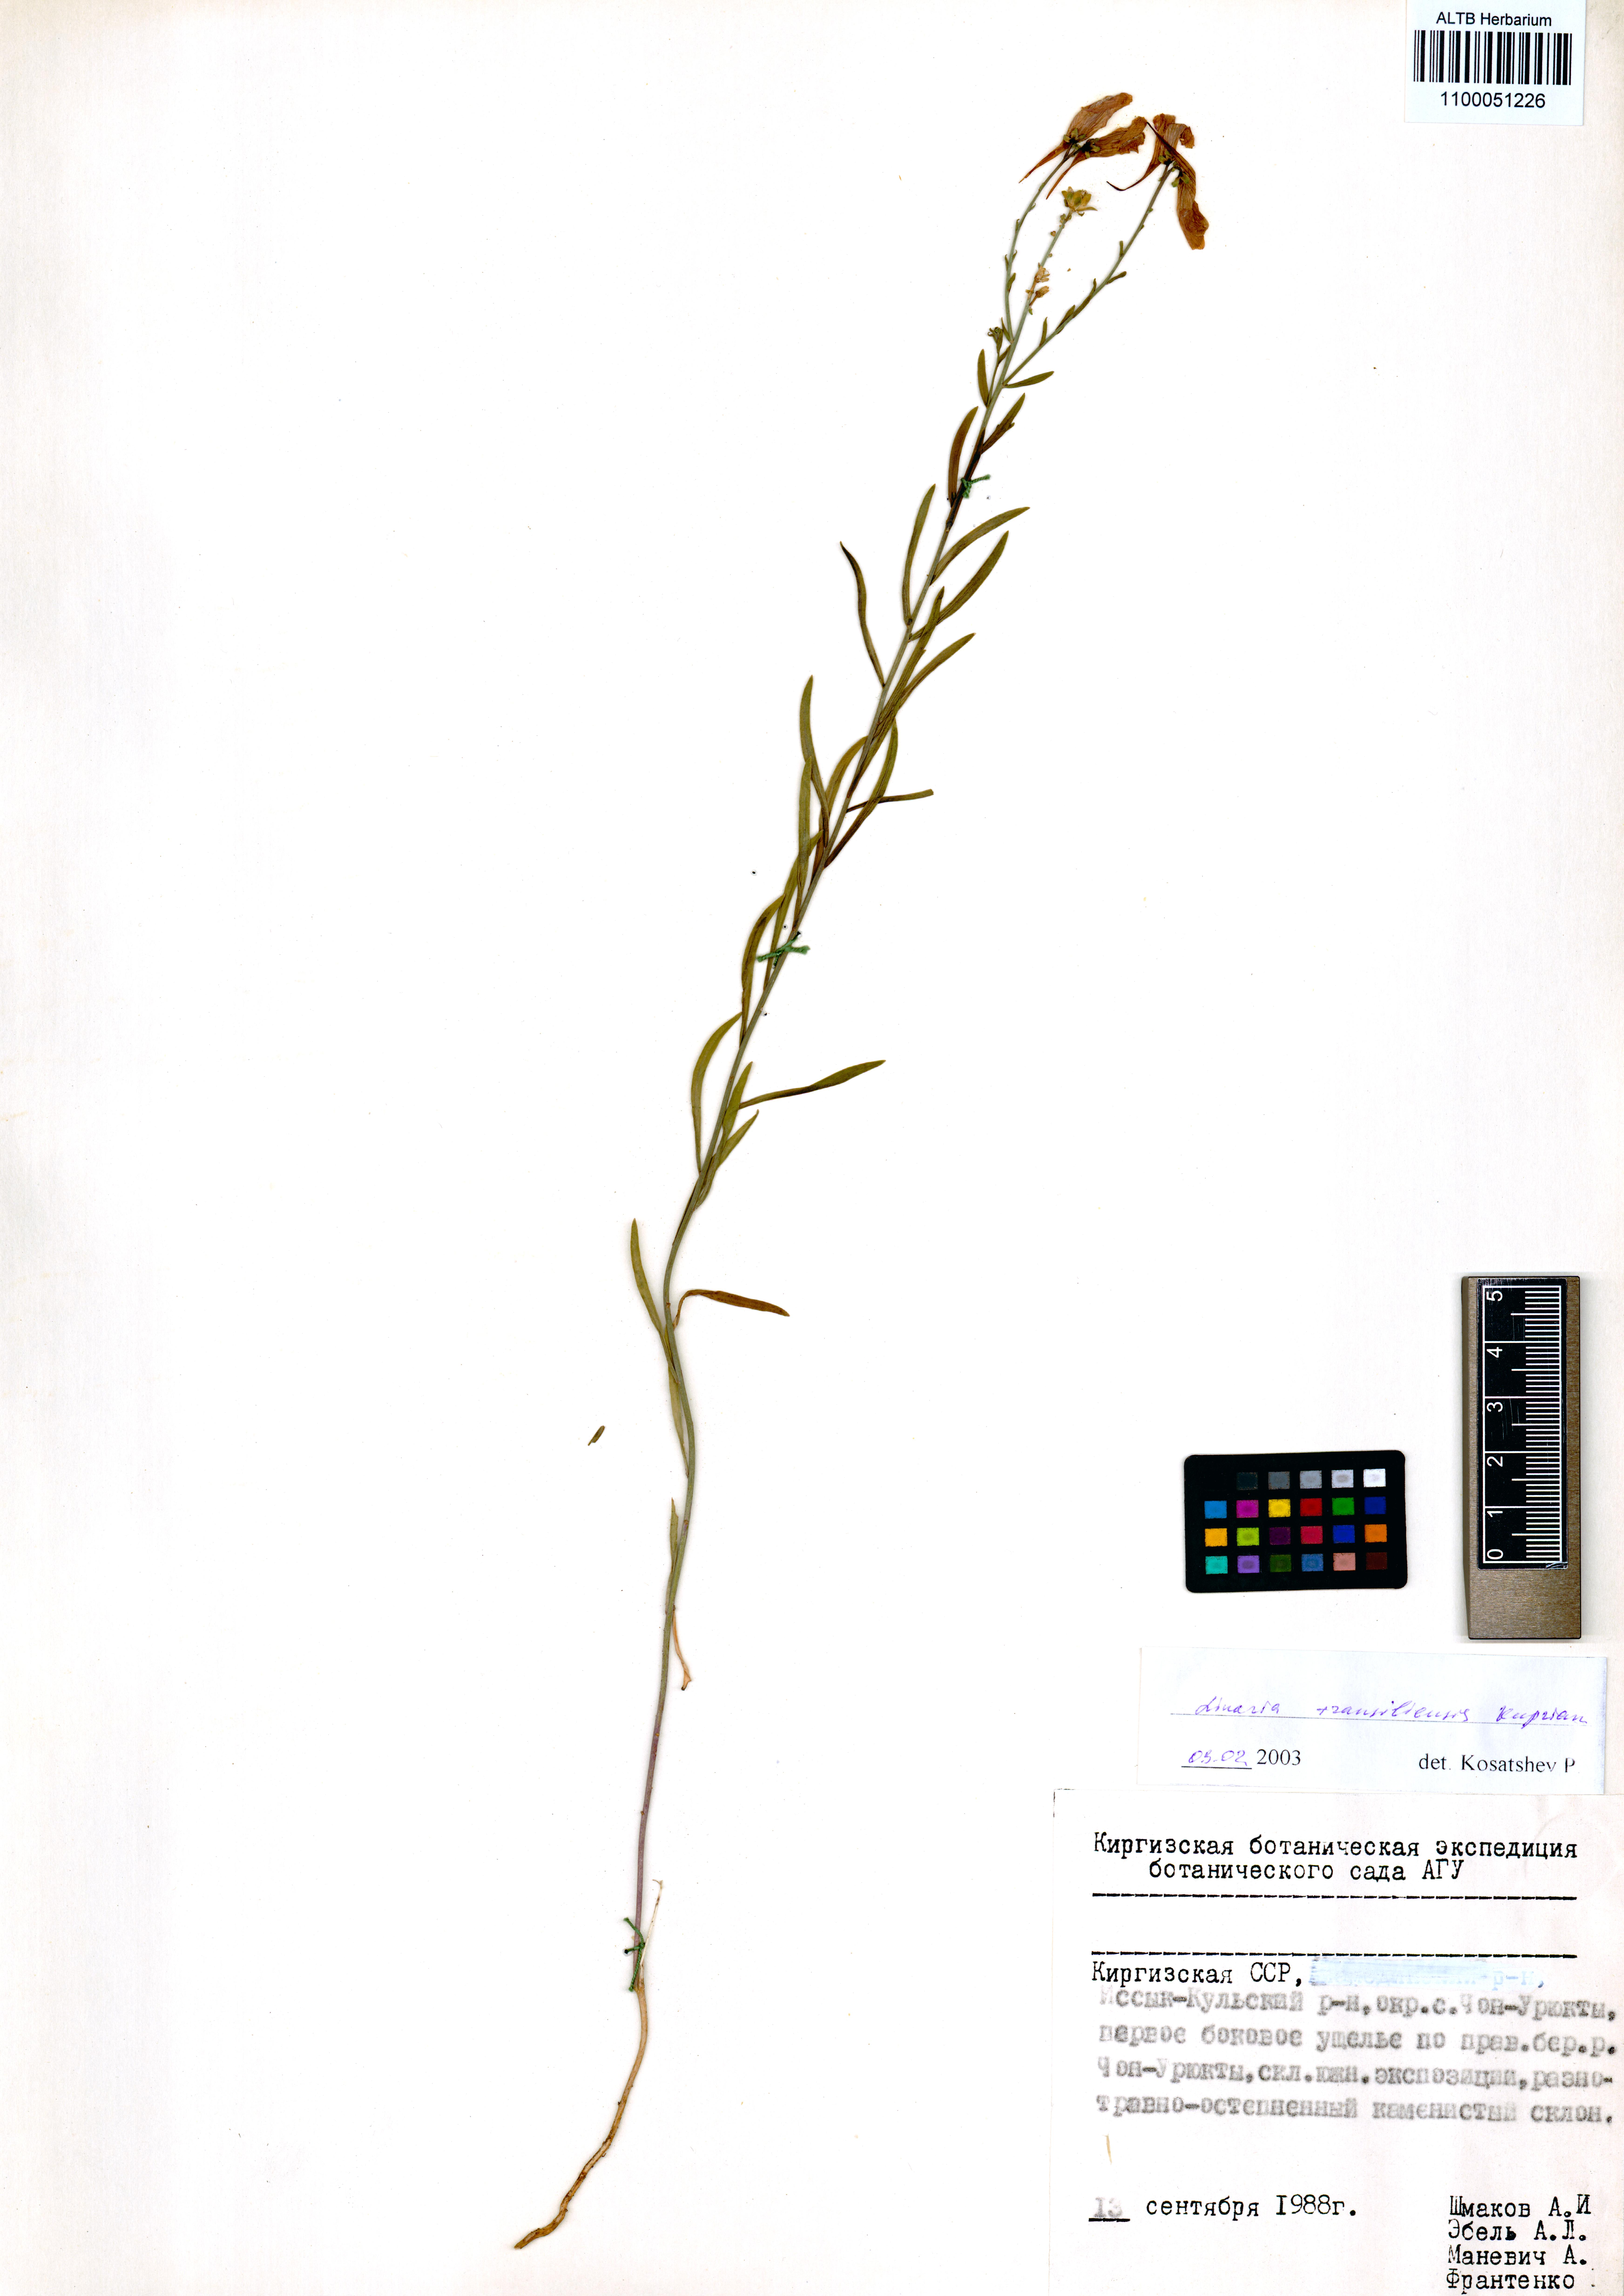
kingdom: Plantae
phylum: Tracheophyta
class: Magnoliopsida
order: Lamiales
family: Plantaginaceae
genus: Linaria
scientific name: Linaria bungei
